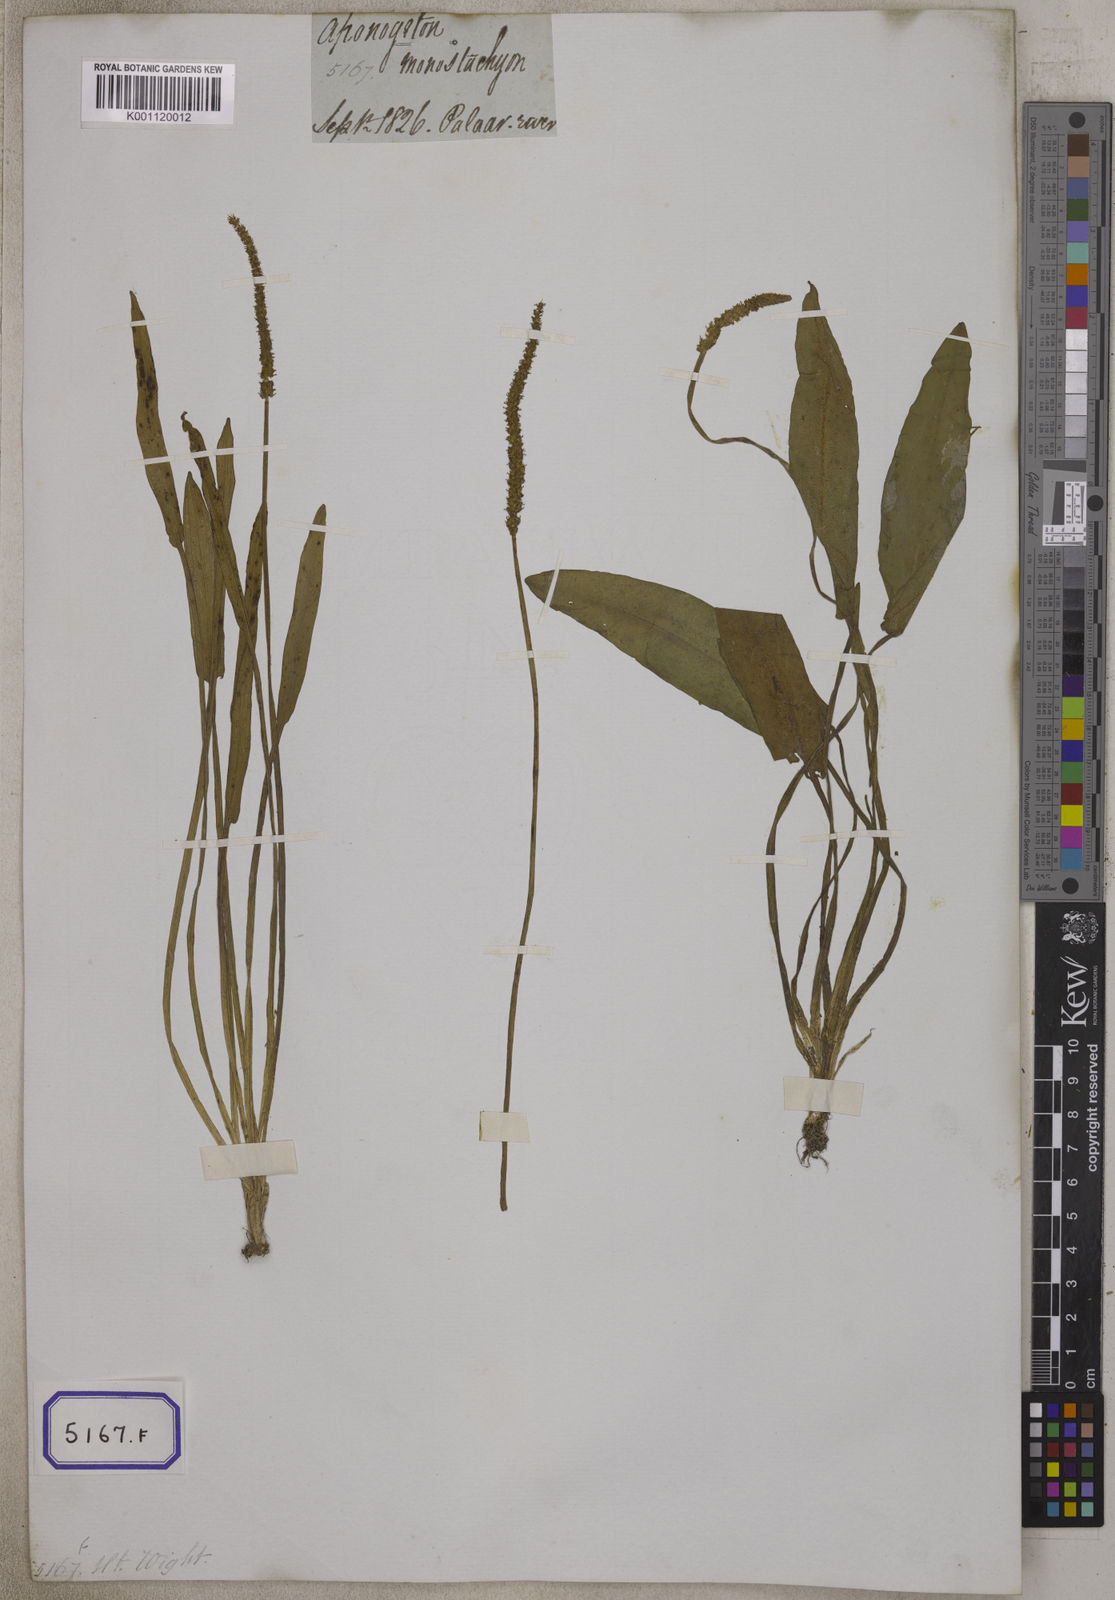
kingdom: Plantae
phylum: Tracheophyta
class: Liliopsida
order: Alismatales
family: Aponogetonaceae
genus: Aponogeton
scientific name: Aponogeton
